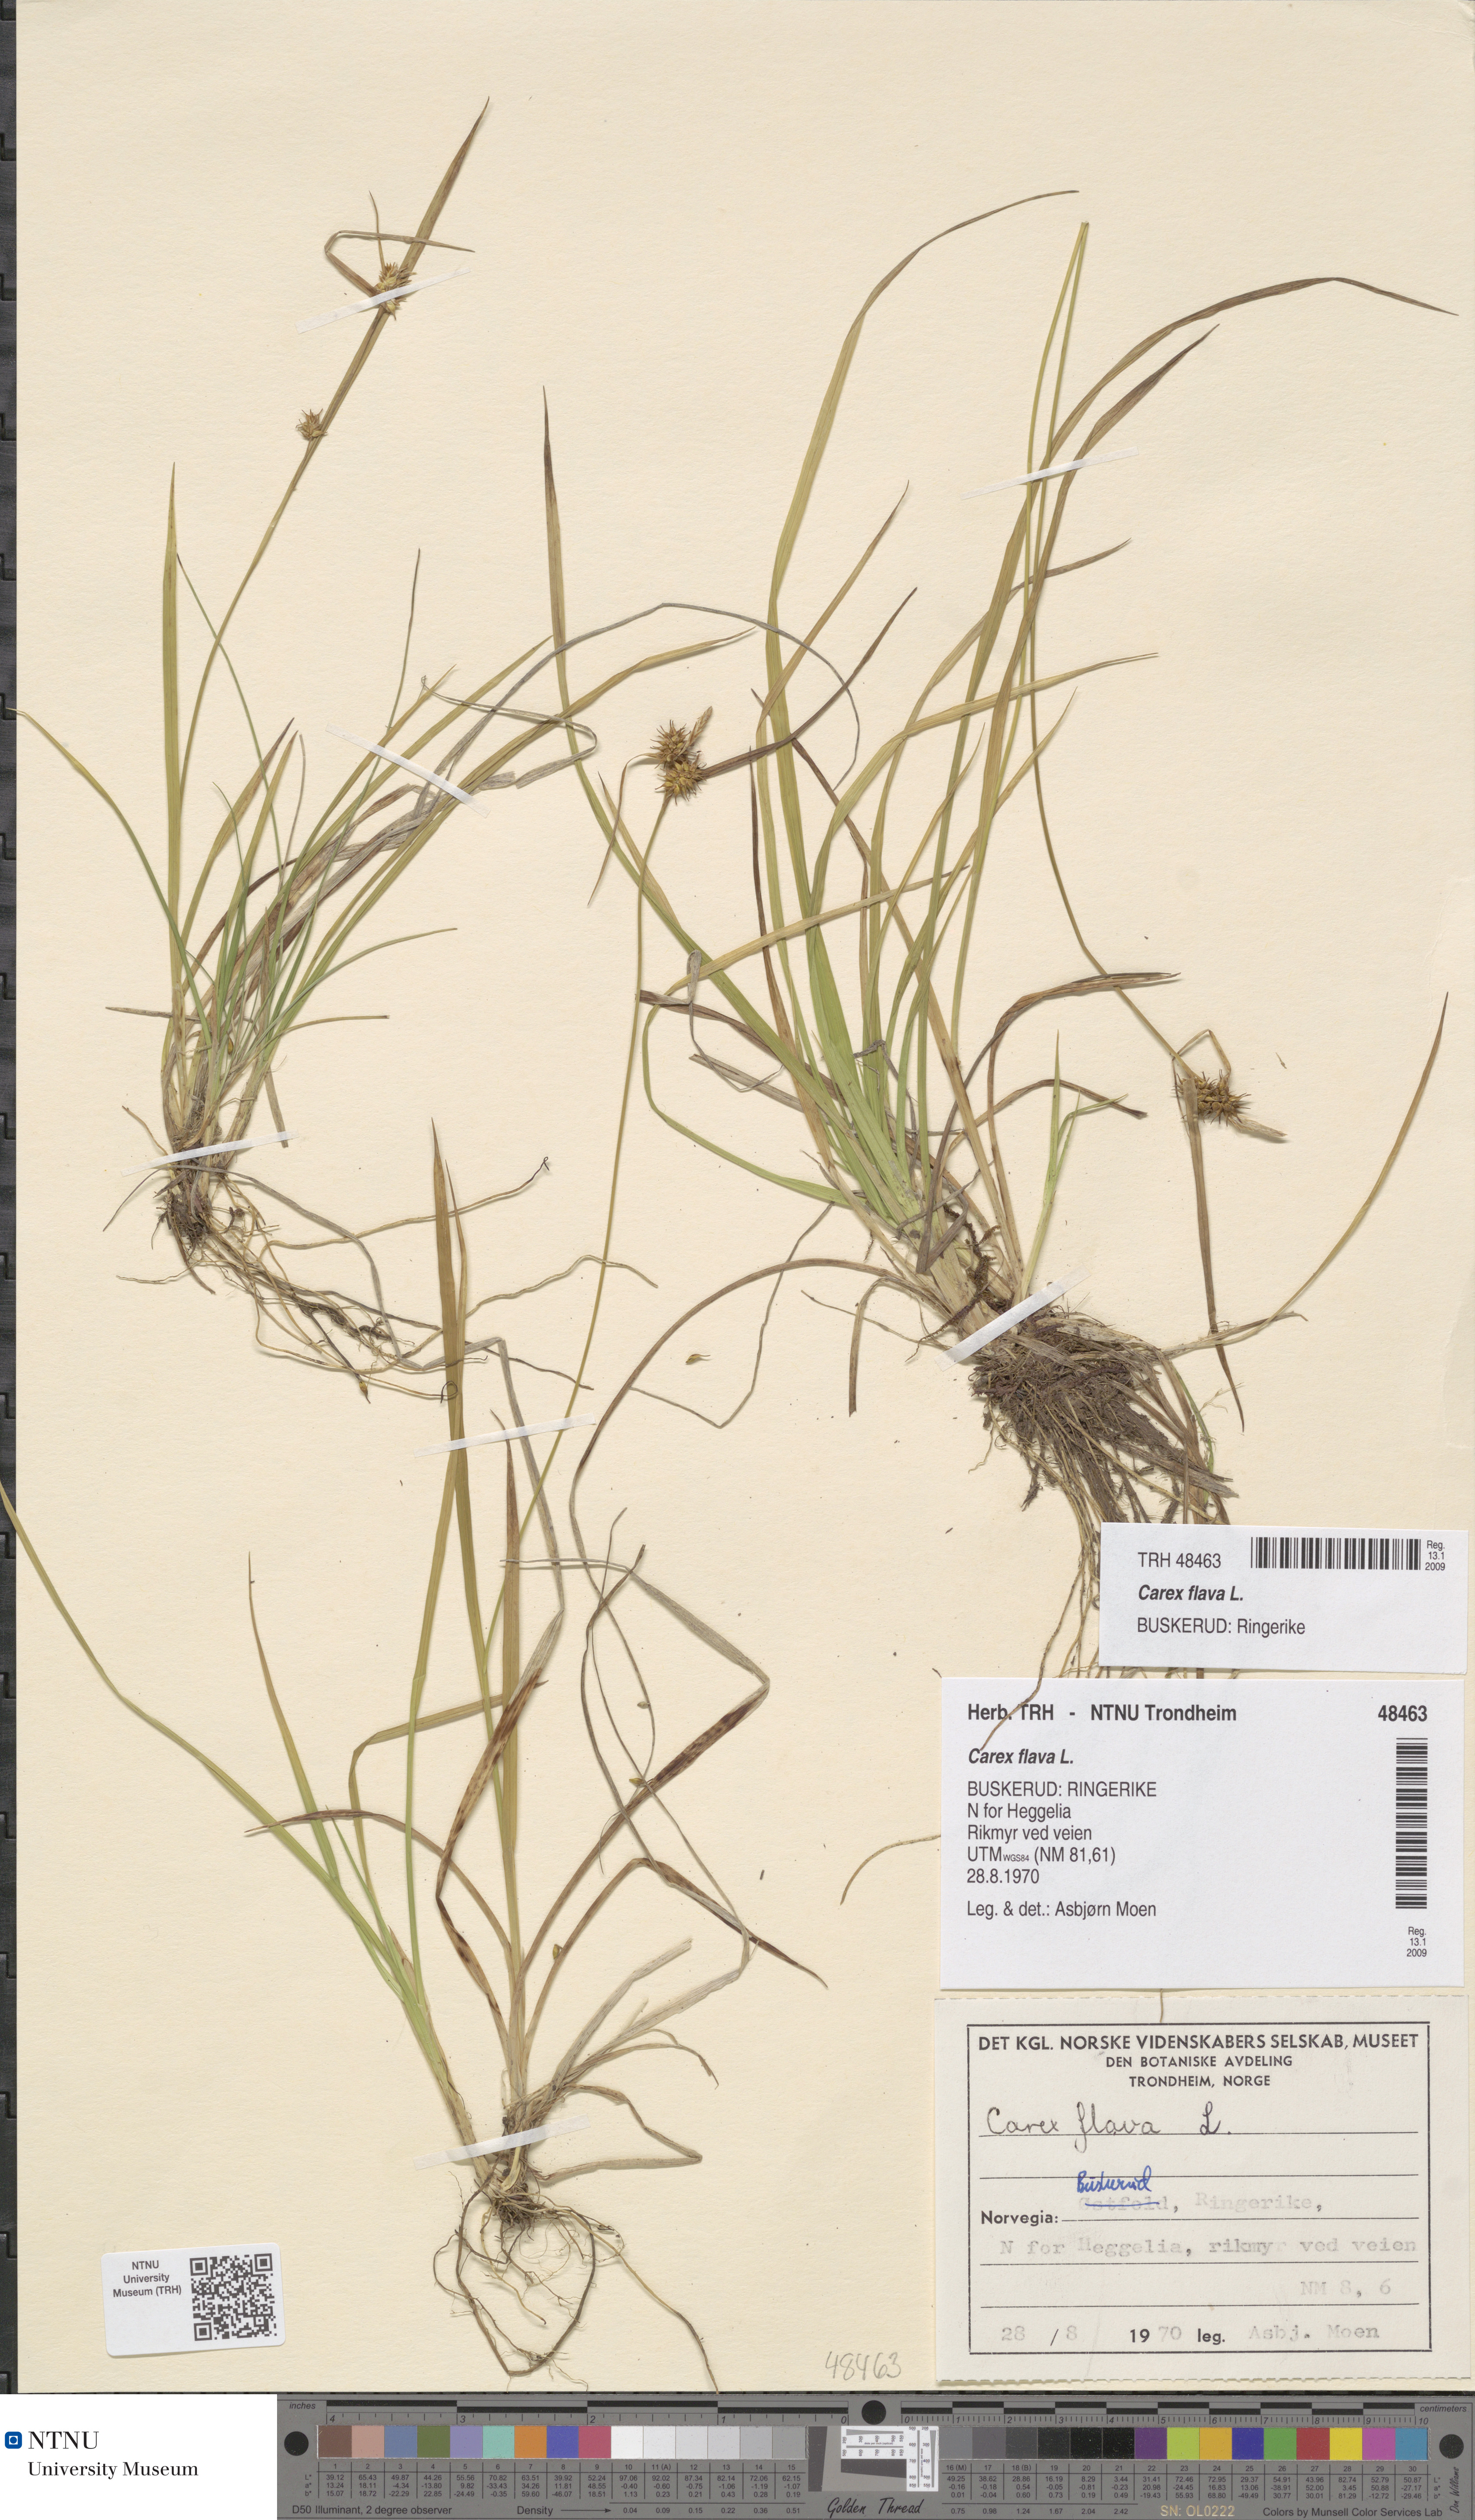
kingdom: Plantae
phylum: Tracheophyta
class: Liliopsida
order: Poales
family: Cyperaceae
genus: Carex
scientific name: Carex flava
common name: Large yellow-sedge
